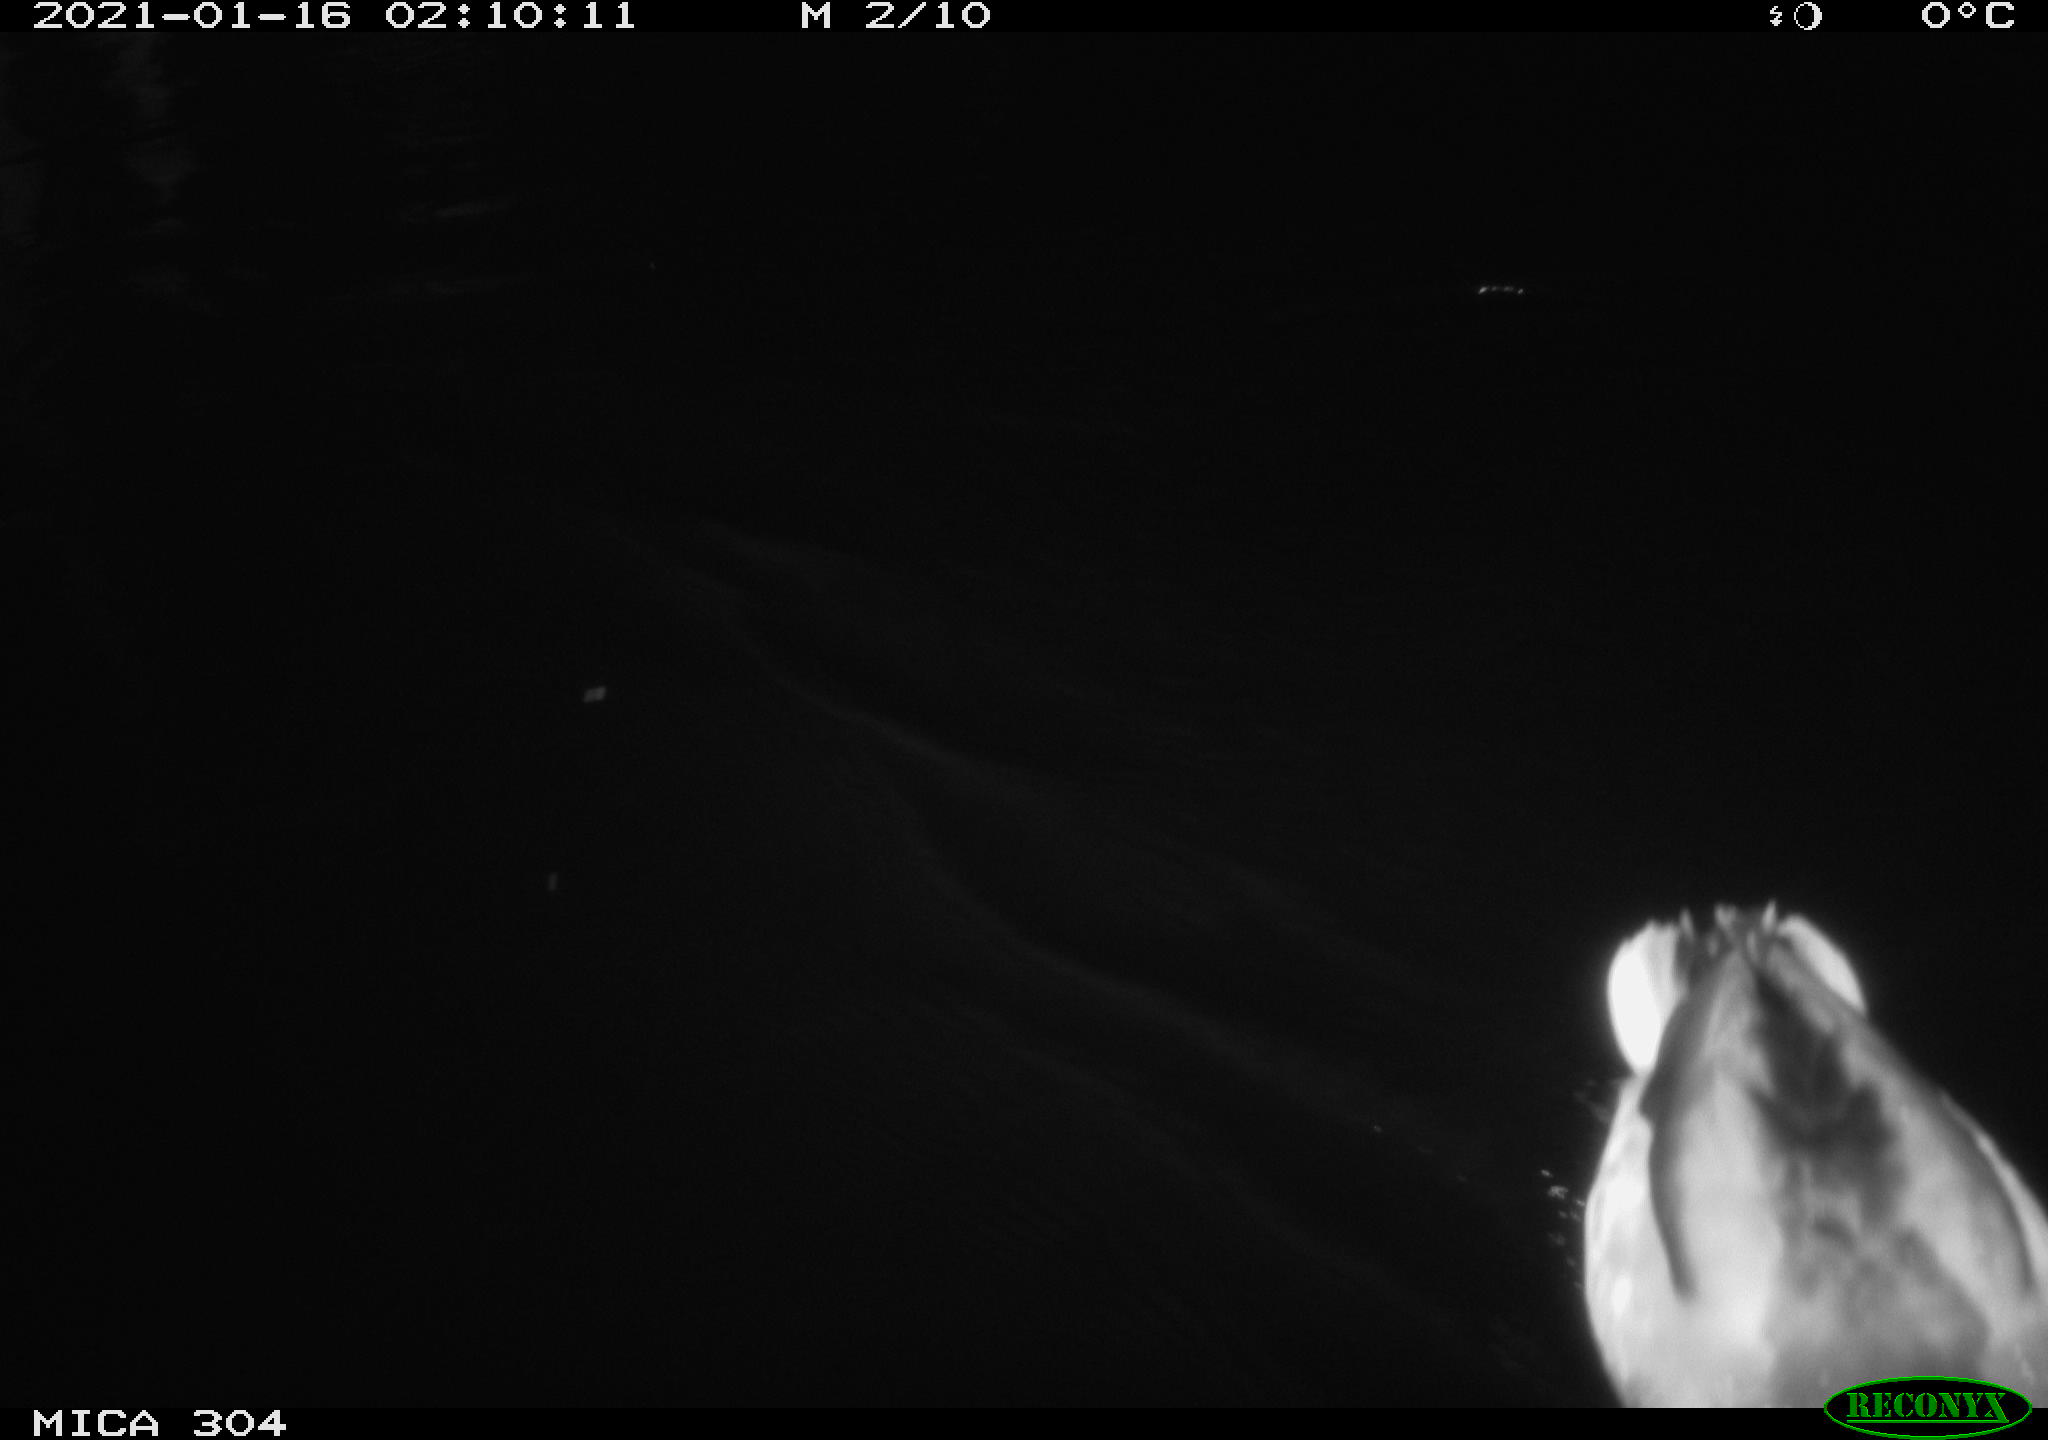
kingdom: Animalia
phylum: Chordata
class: Aves
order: Anseriformes
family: Anatidae
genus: Anas
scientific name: Anas platyrhynchos
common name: Mallard
